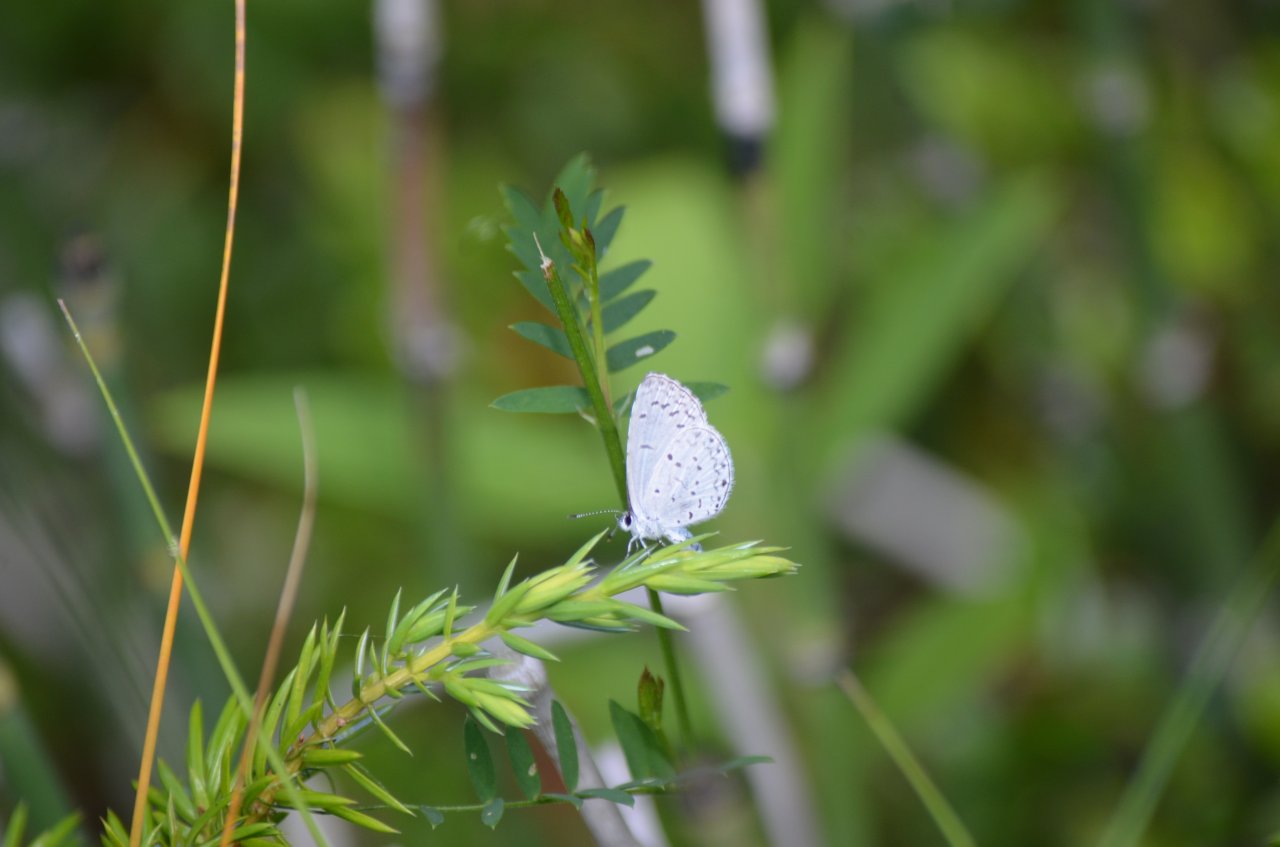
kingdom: Animalia
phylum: Arthropoda
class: Insecta
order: Lepidoptera
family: Lycaenidae
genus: Celastrina
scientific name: Celastrina
